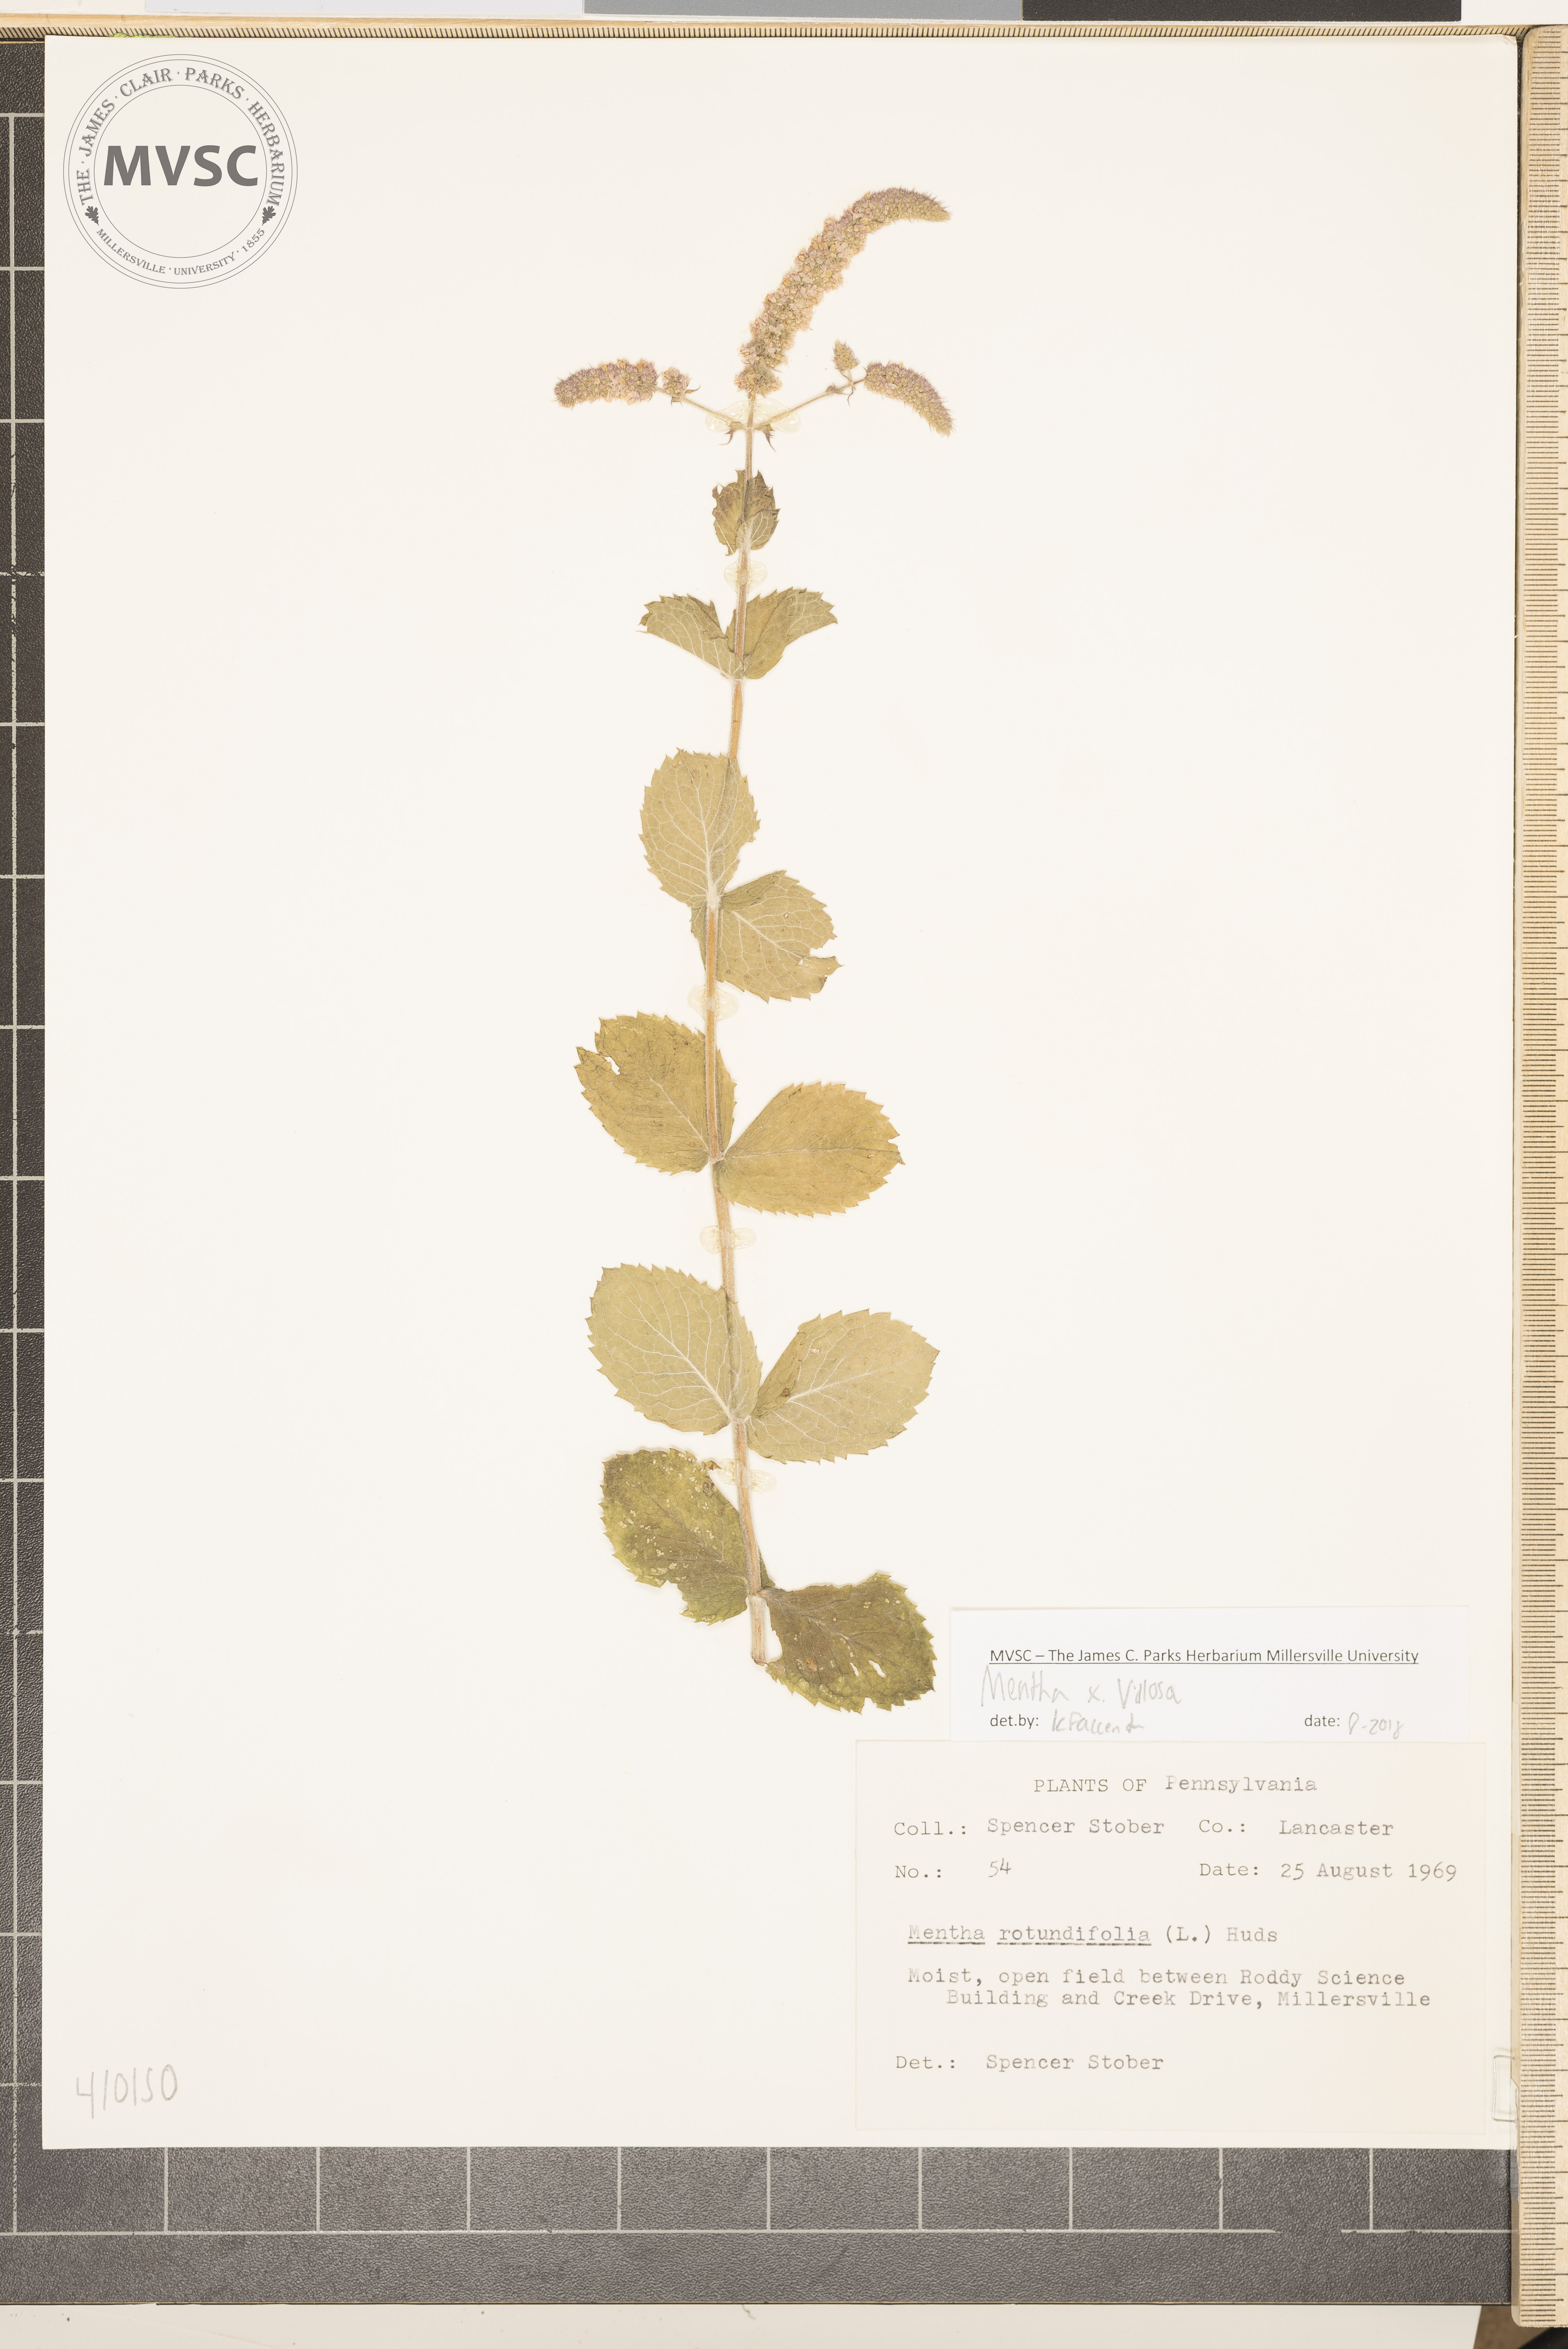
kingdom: Plantae
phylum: Tracheophyta
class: Magnoliopsida
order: Lamiales
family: Lamiaceae
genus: Mentha
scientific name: Mentha villosa
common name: Apple mint
